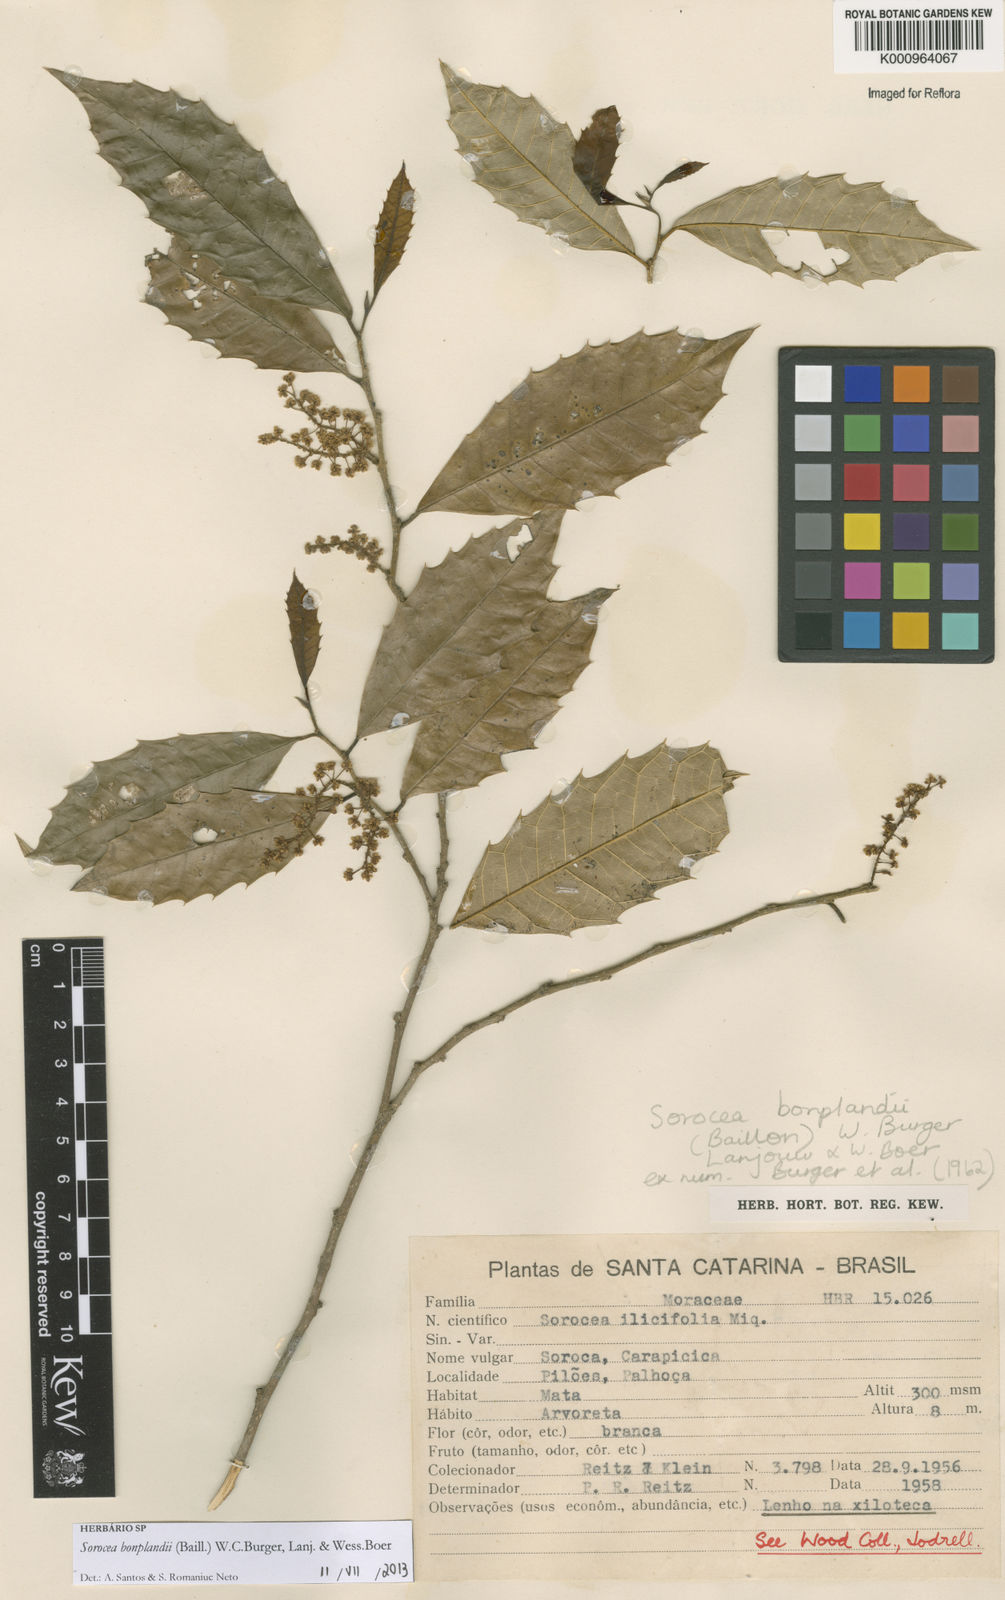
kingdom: Plantae
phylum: Tracheophyta
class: Magnoliopsida
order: Rosales
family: Moraceae
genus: Sorocea
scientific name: Sorocea
